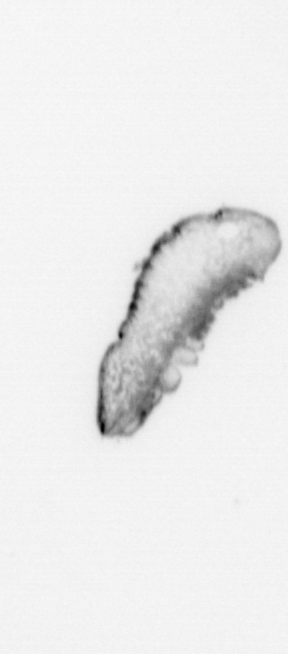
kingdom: Animalia
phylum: Annelida
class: Polychaeta
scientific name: Polychaeta
